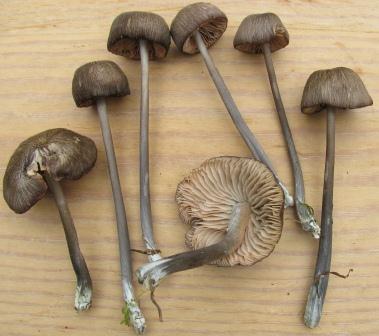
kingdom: Fungi
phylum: Basidiomycota
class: Agaricomycetes
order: Agaricales
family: Entolomataceae
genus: Entoloma
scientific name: Entoloma viiduense
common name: purpurbrun rødblad
